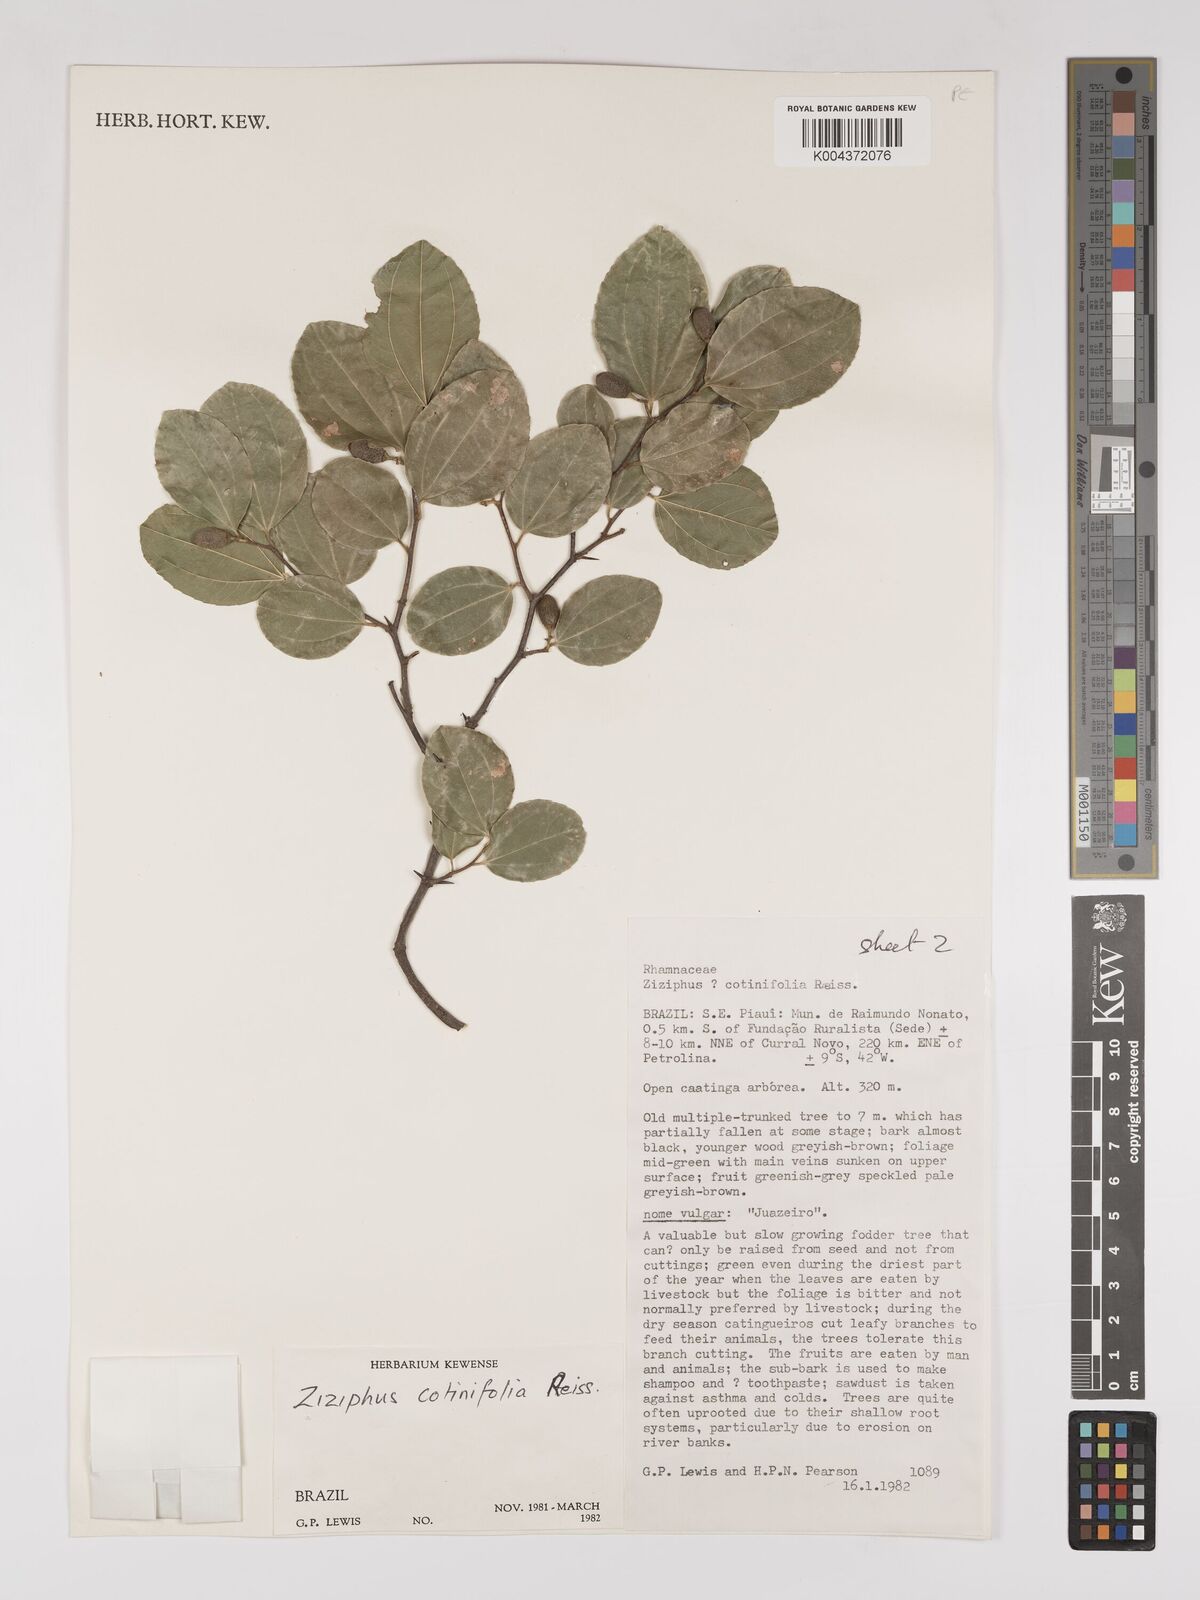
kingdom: Plantae
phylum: Tracheophyta
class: Magnoliopsida
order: Rosales
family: Rhamnaceae
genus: Sarcomphalus
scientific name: Sarcomphalus cotinifolius
